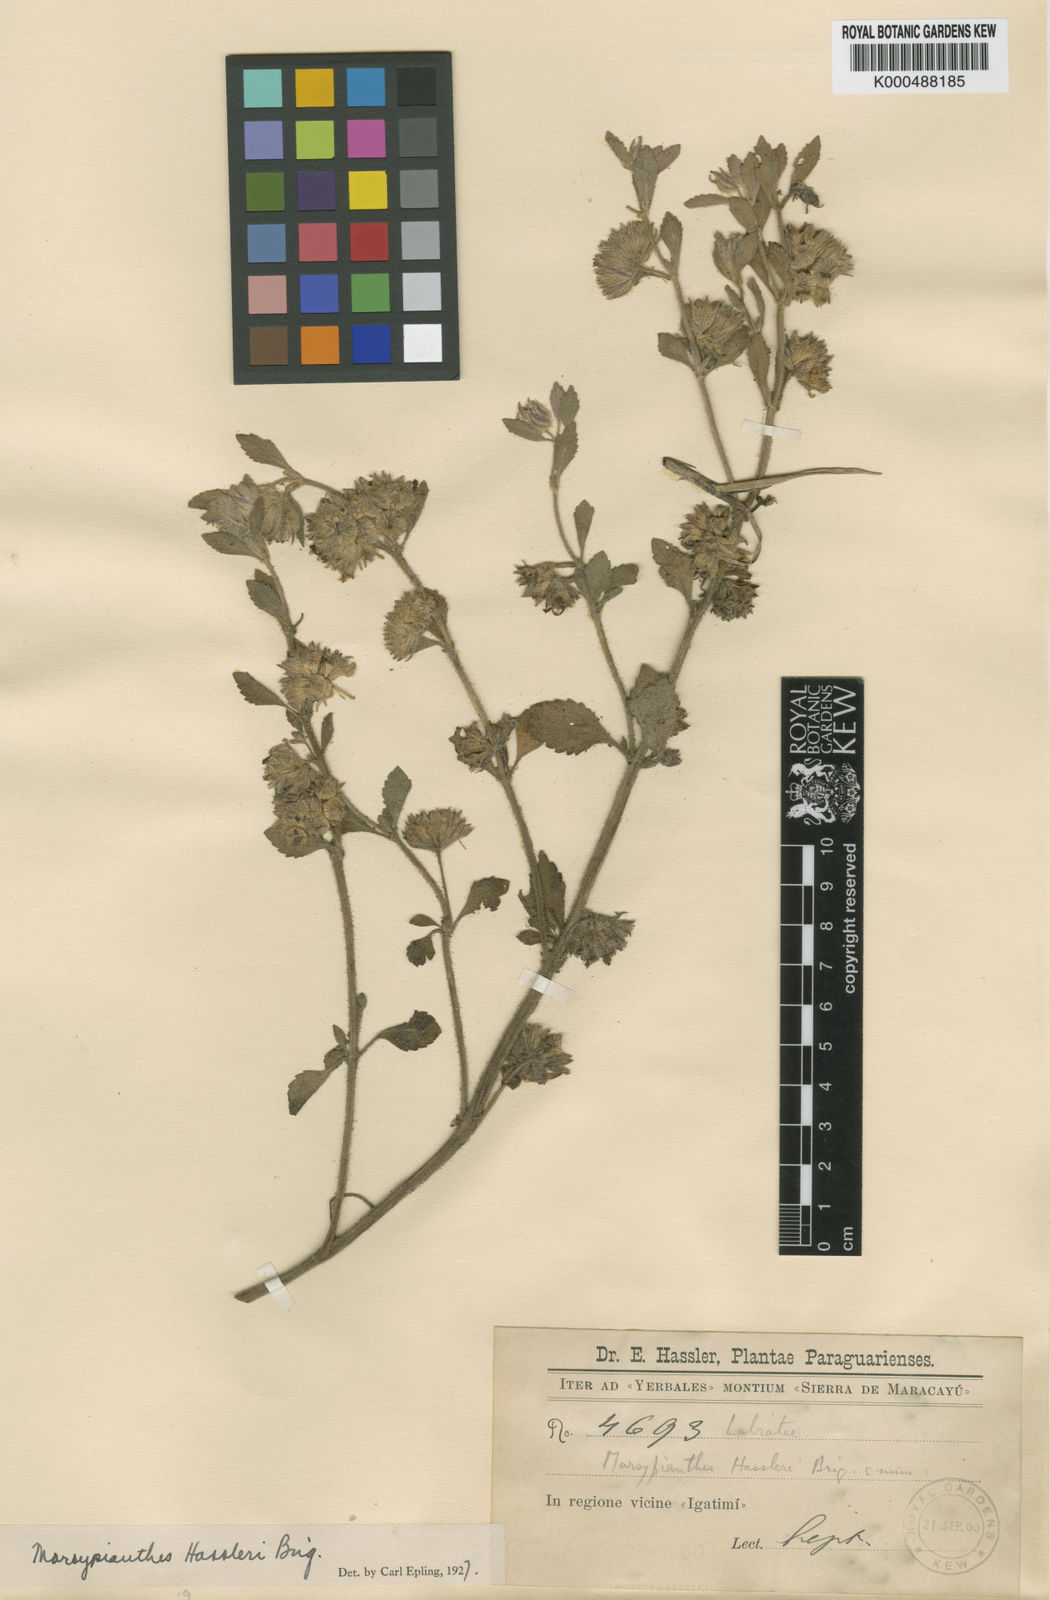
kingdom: Plantae
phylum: Tracheophyta
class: Magnoliopsida
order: Lamiales
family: Lamiaceae
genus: Marsypianthes
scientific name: Marsypianthes hassleri
